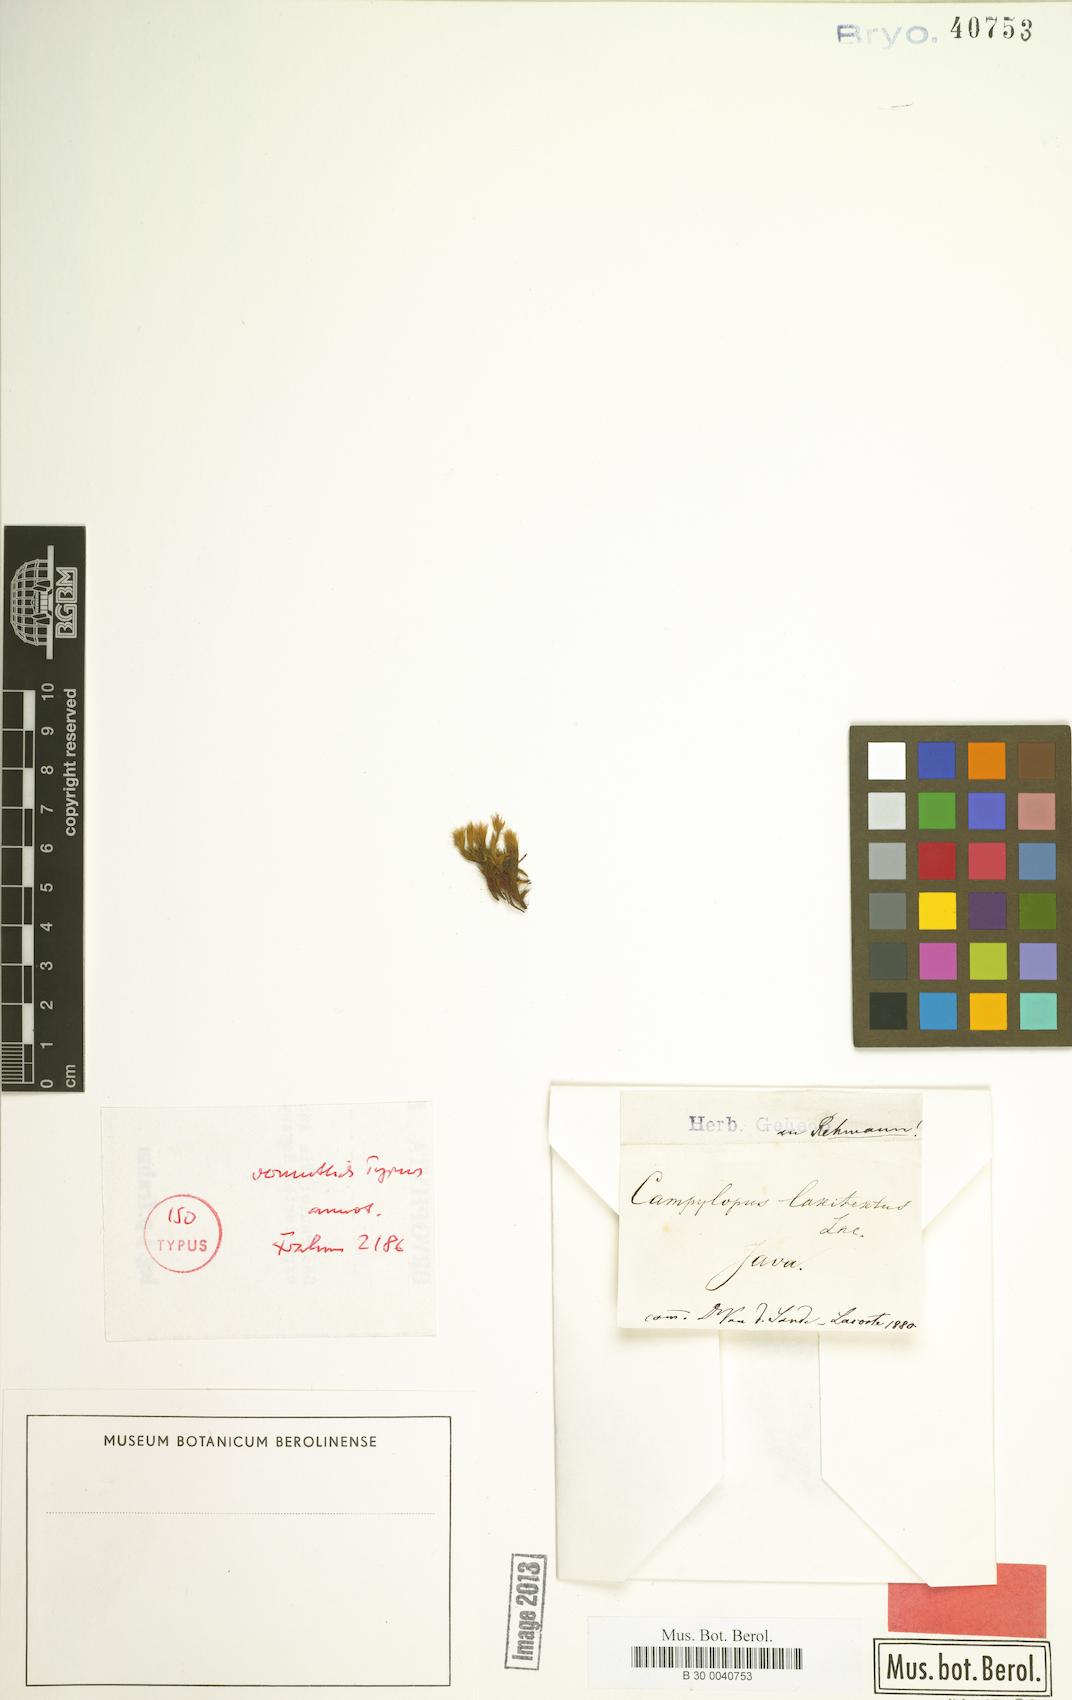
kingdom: Plantae
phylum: Bryophyta
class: Bryopsida
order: Dicranales
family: Leucobryaceae
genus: Campylopus
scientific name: Campylopus laxitextus
